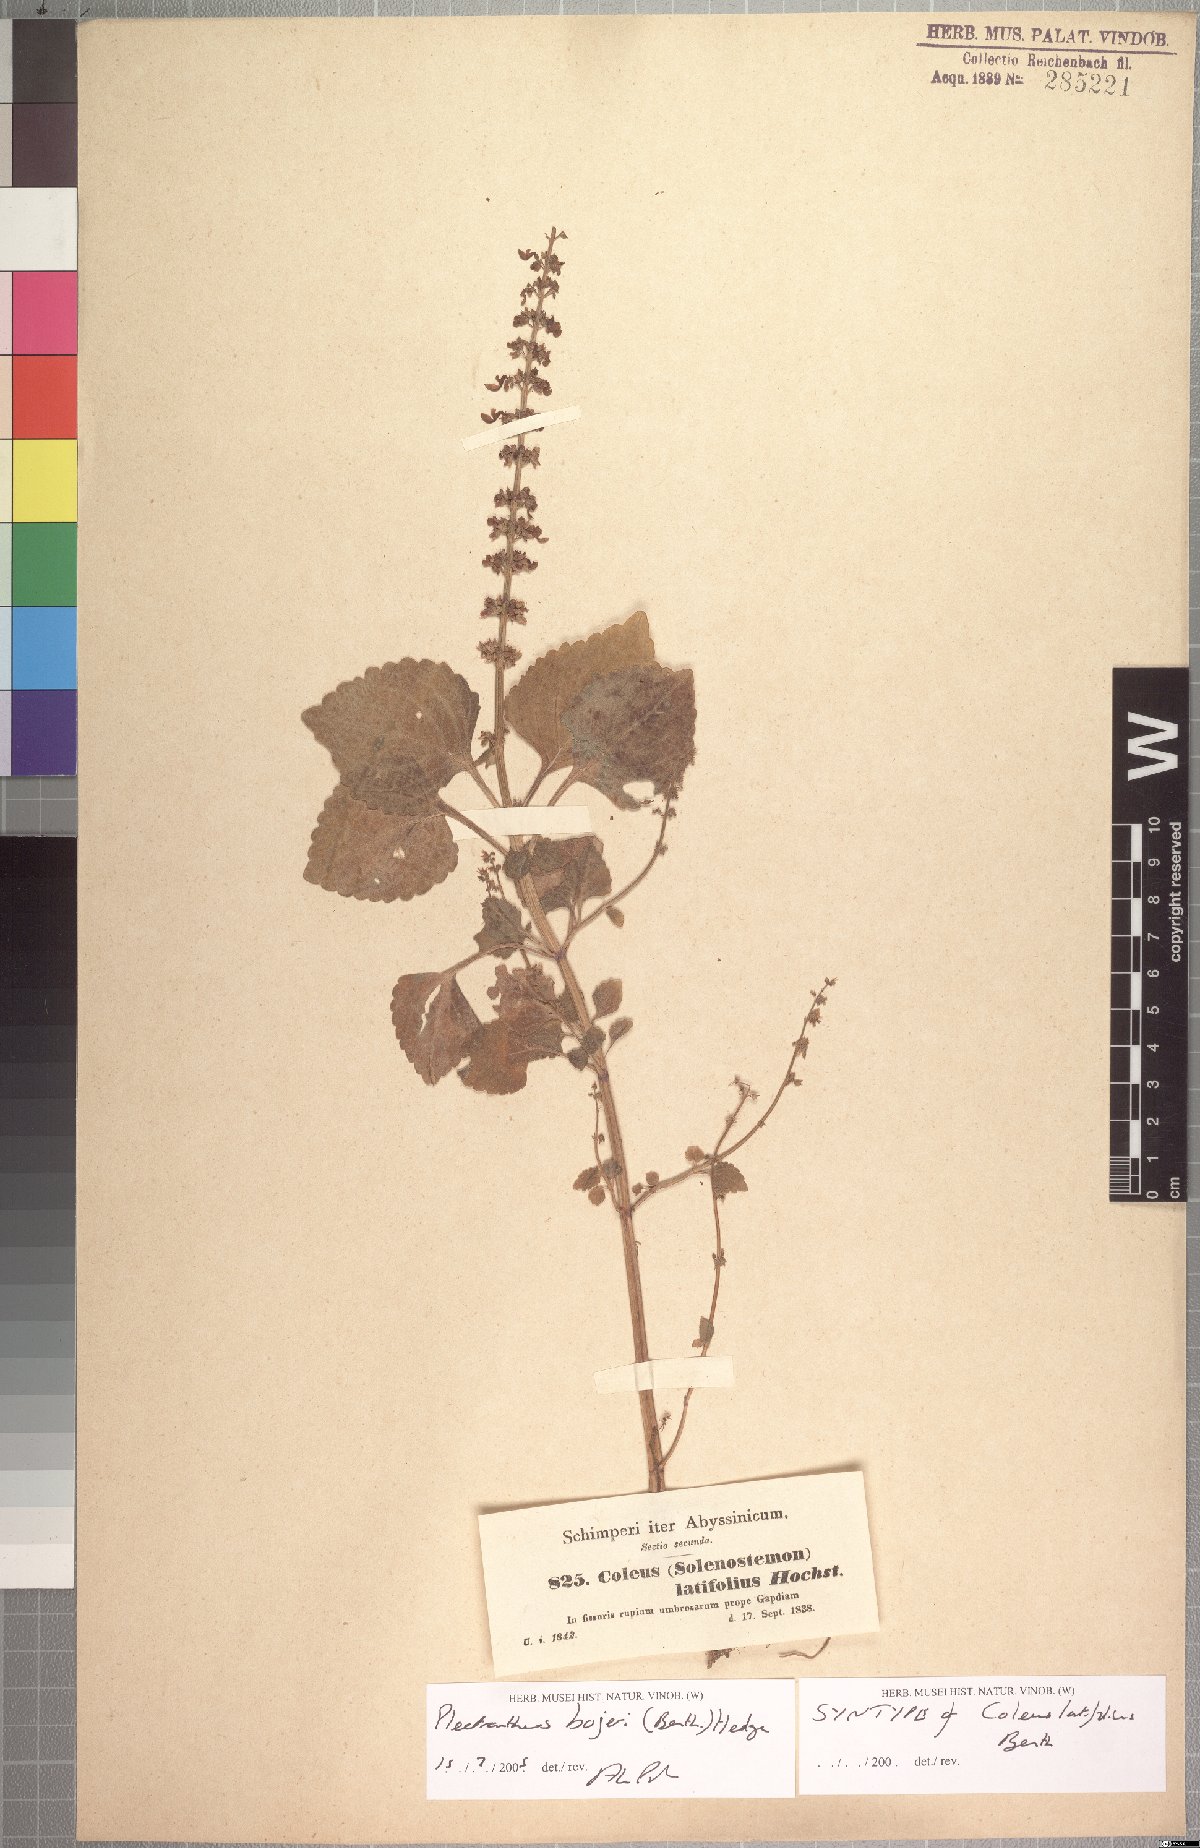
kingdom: Plantae
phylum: Tracheophyta
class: Magnoliopsida
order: Lamiales
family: Lamiaceae
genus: Coleus
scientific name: Coleus bojeri
